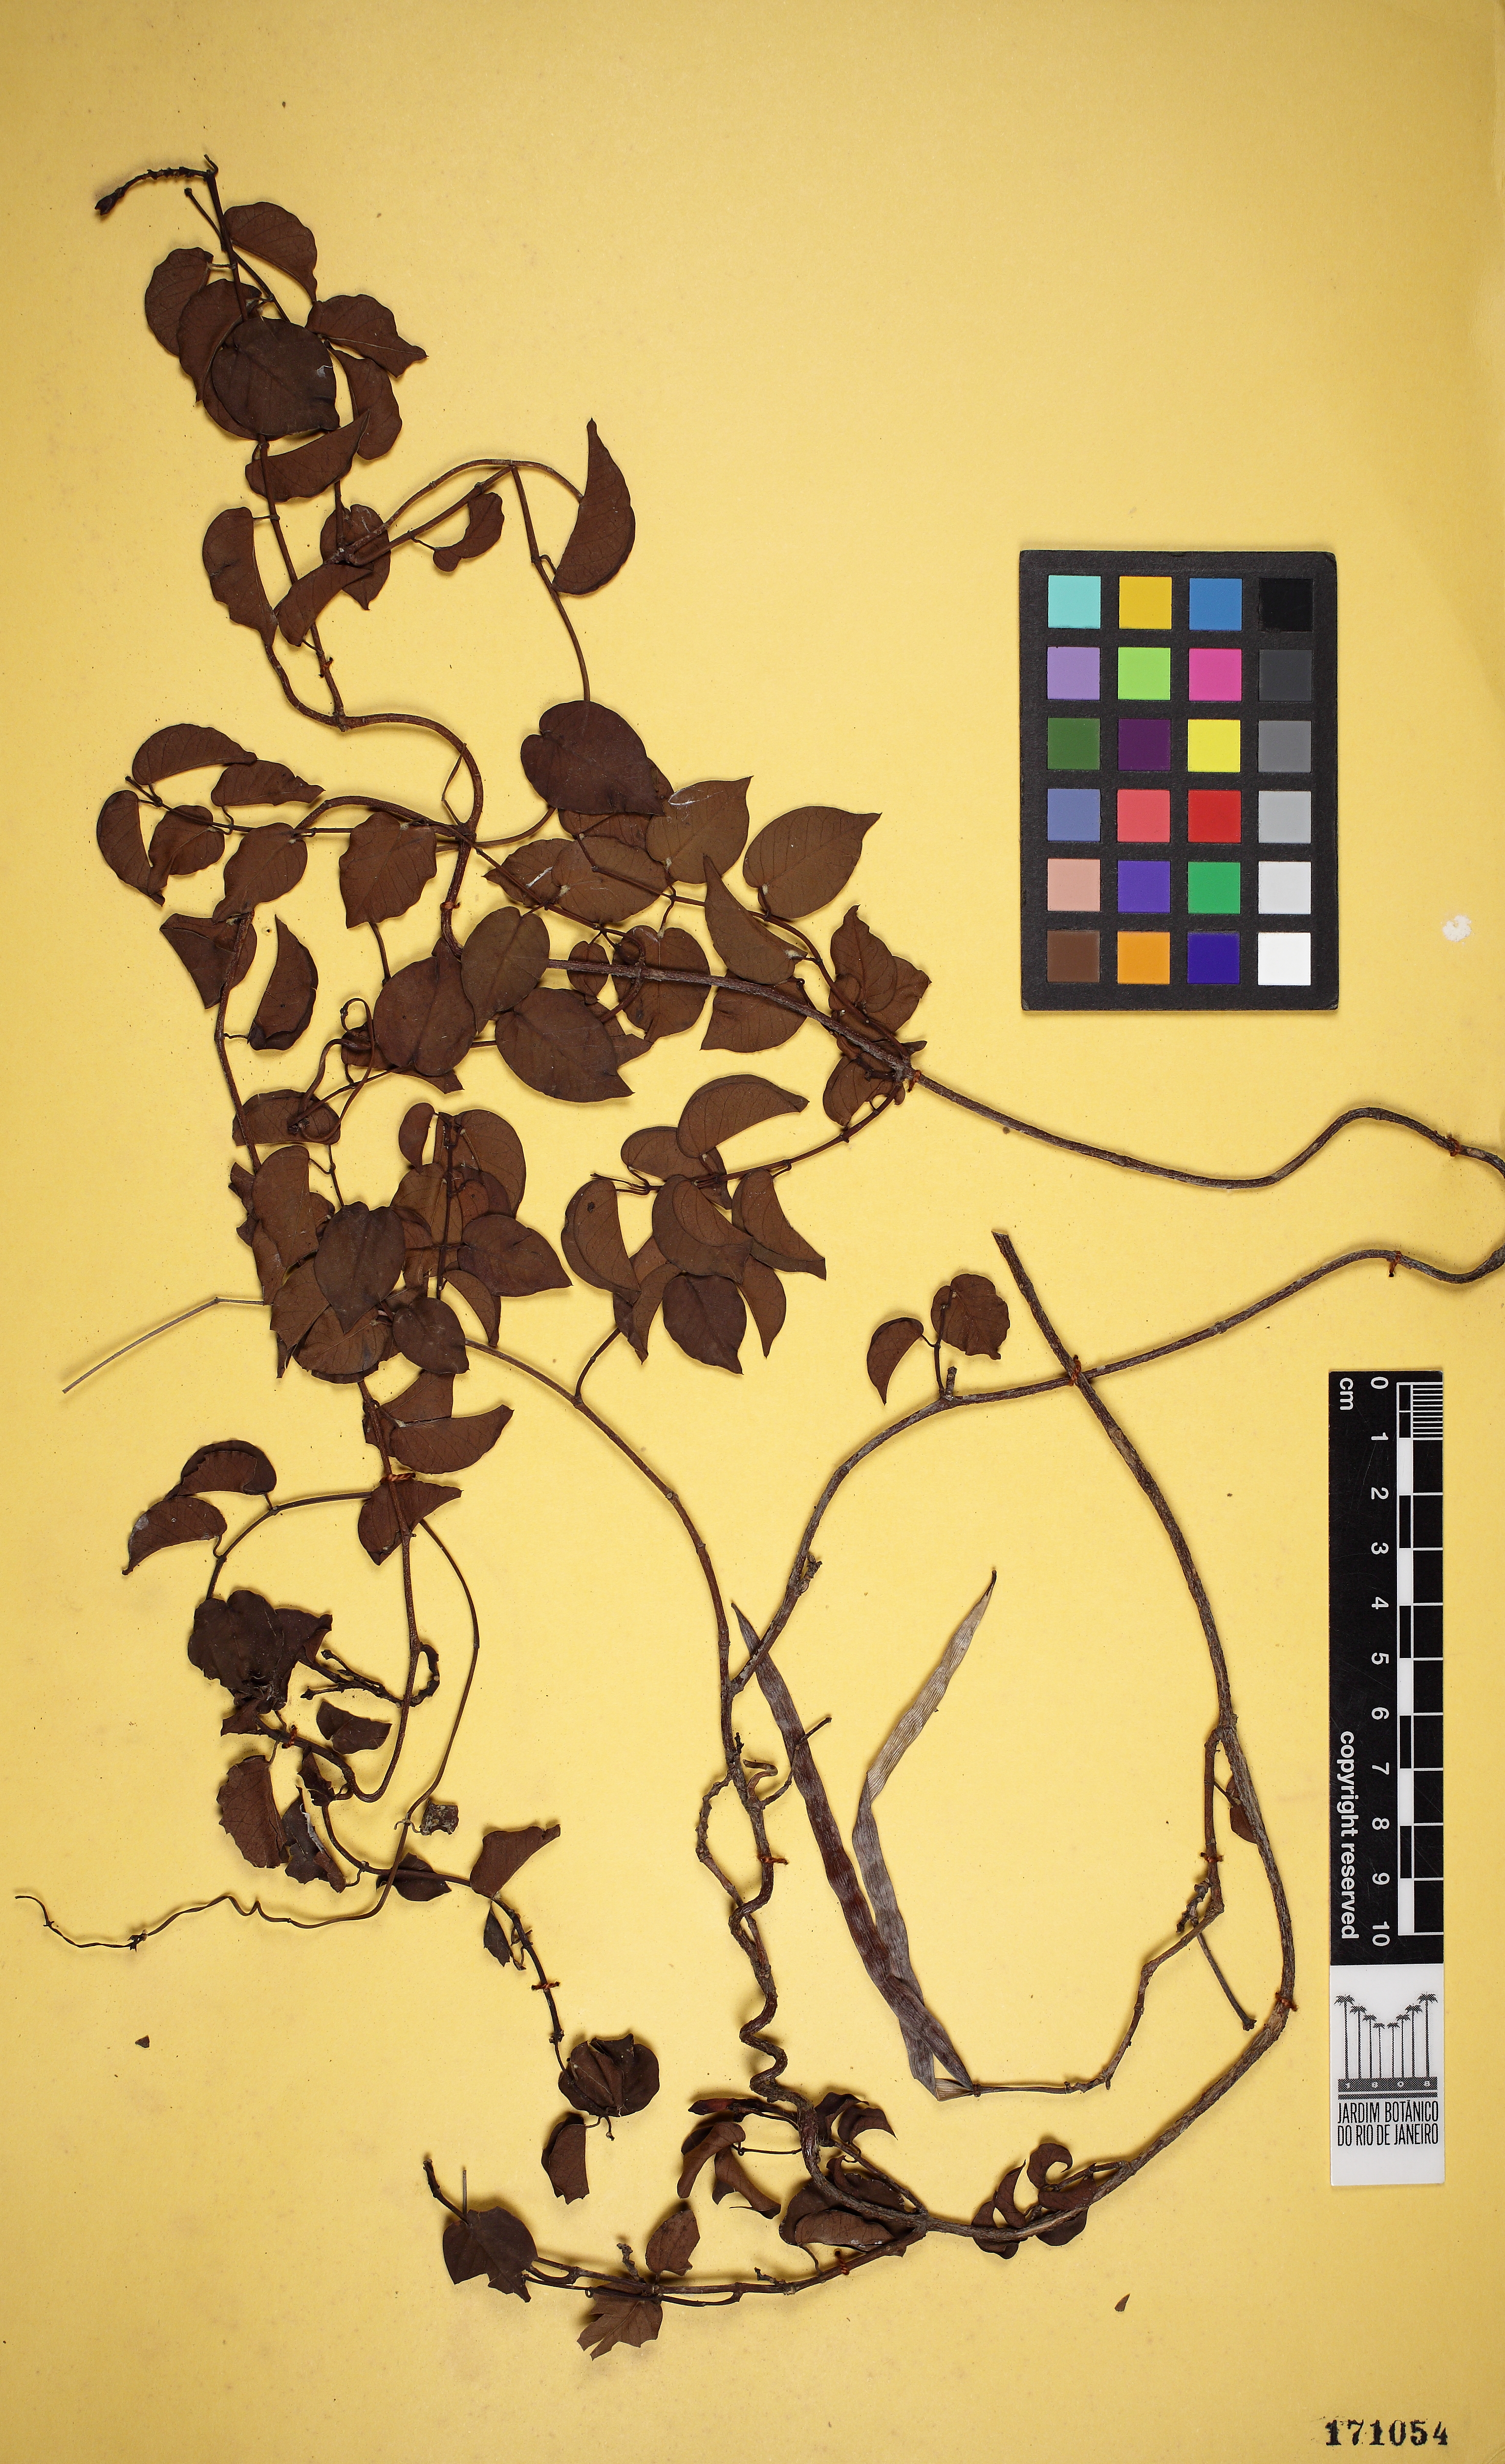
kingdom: Plantae
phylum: Tracheophyta
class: Magnoliopsida
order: Gentianales
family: Apocynaceae
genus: Mandevilla
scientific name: Mandevilla guanabarica
